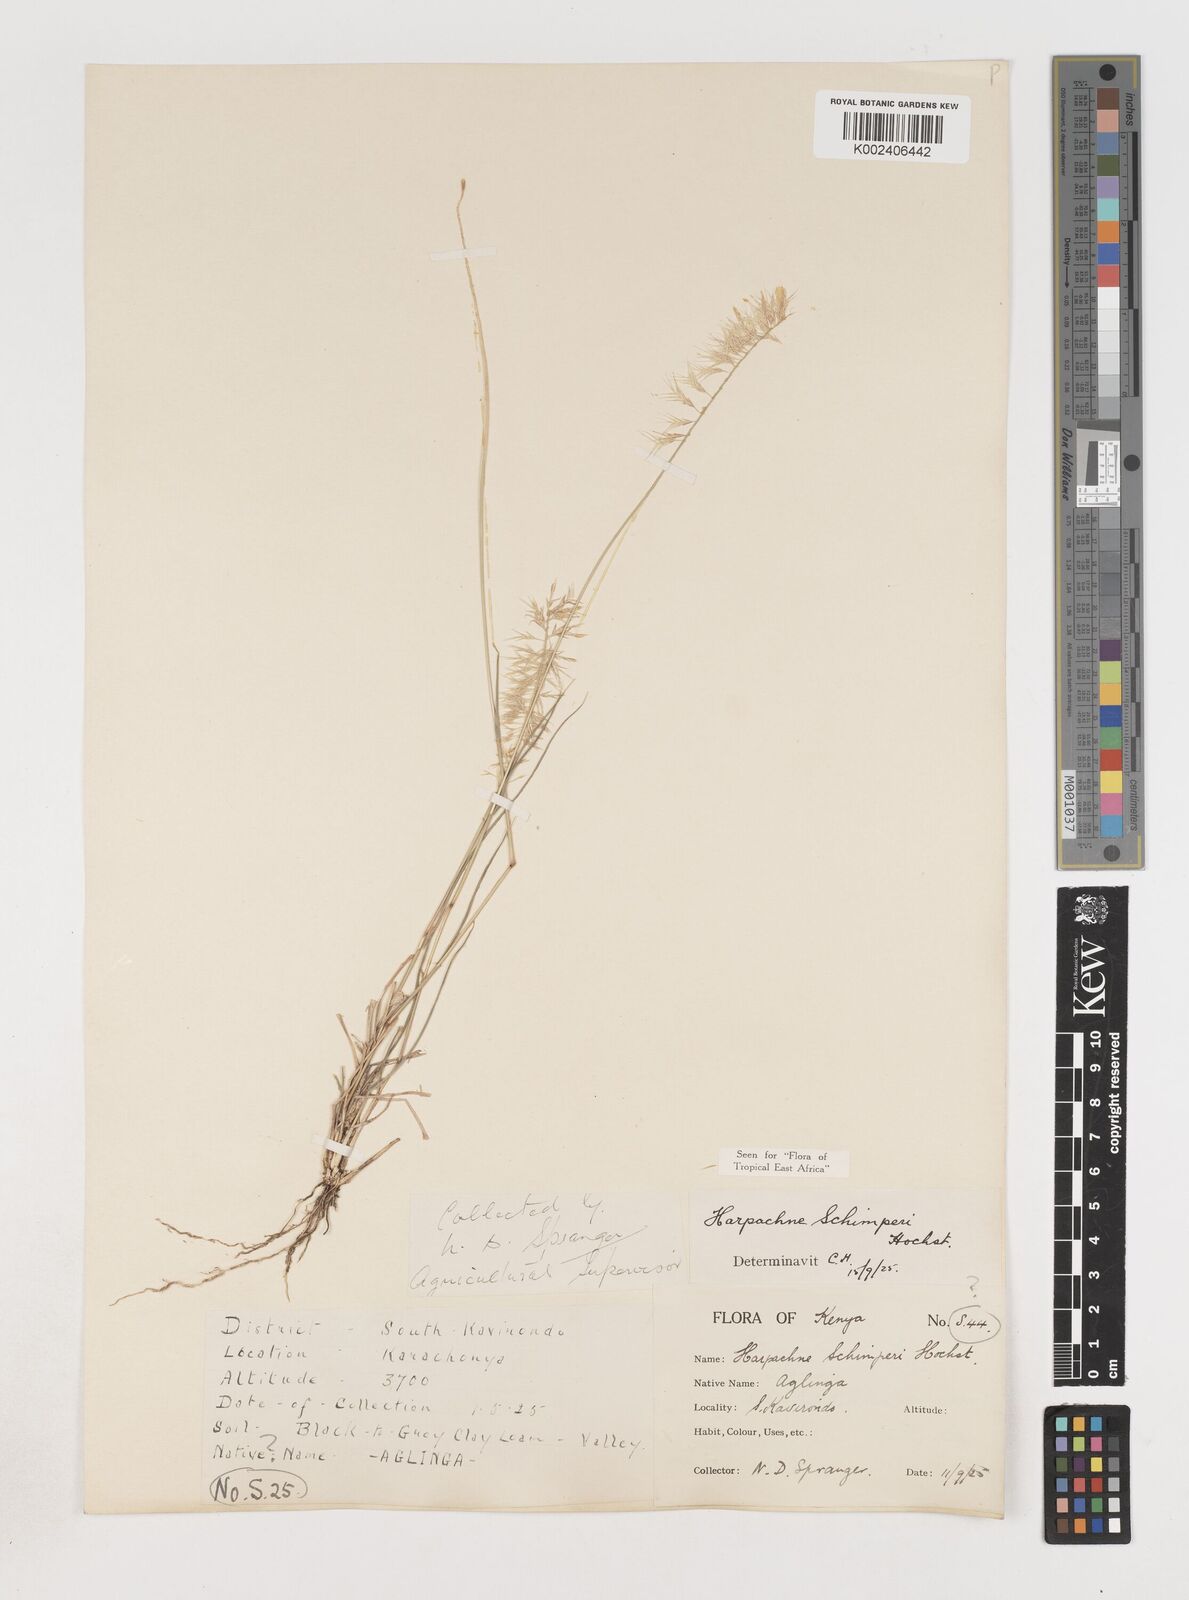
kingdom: Plantae
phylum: Tracheophyta
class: Liliopsida
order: Poales
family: Poaceae
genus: Harpachne
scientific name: Harpachne schimperi
